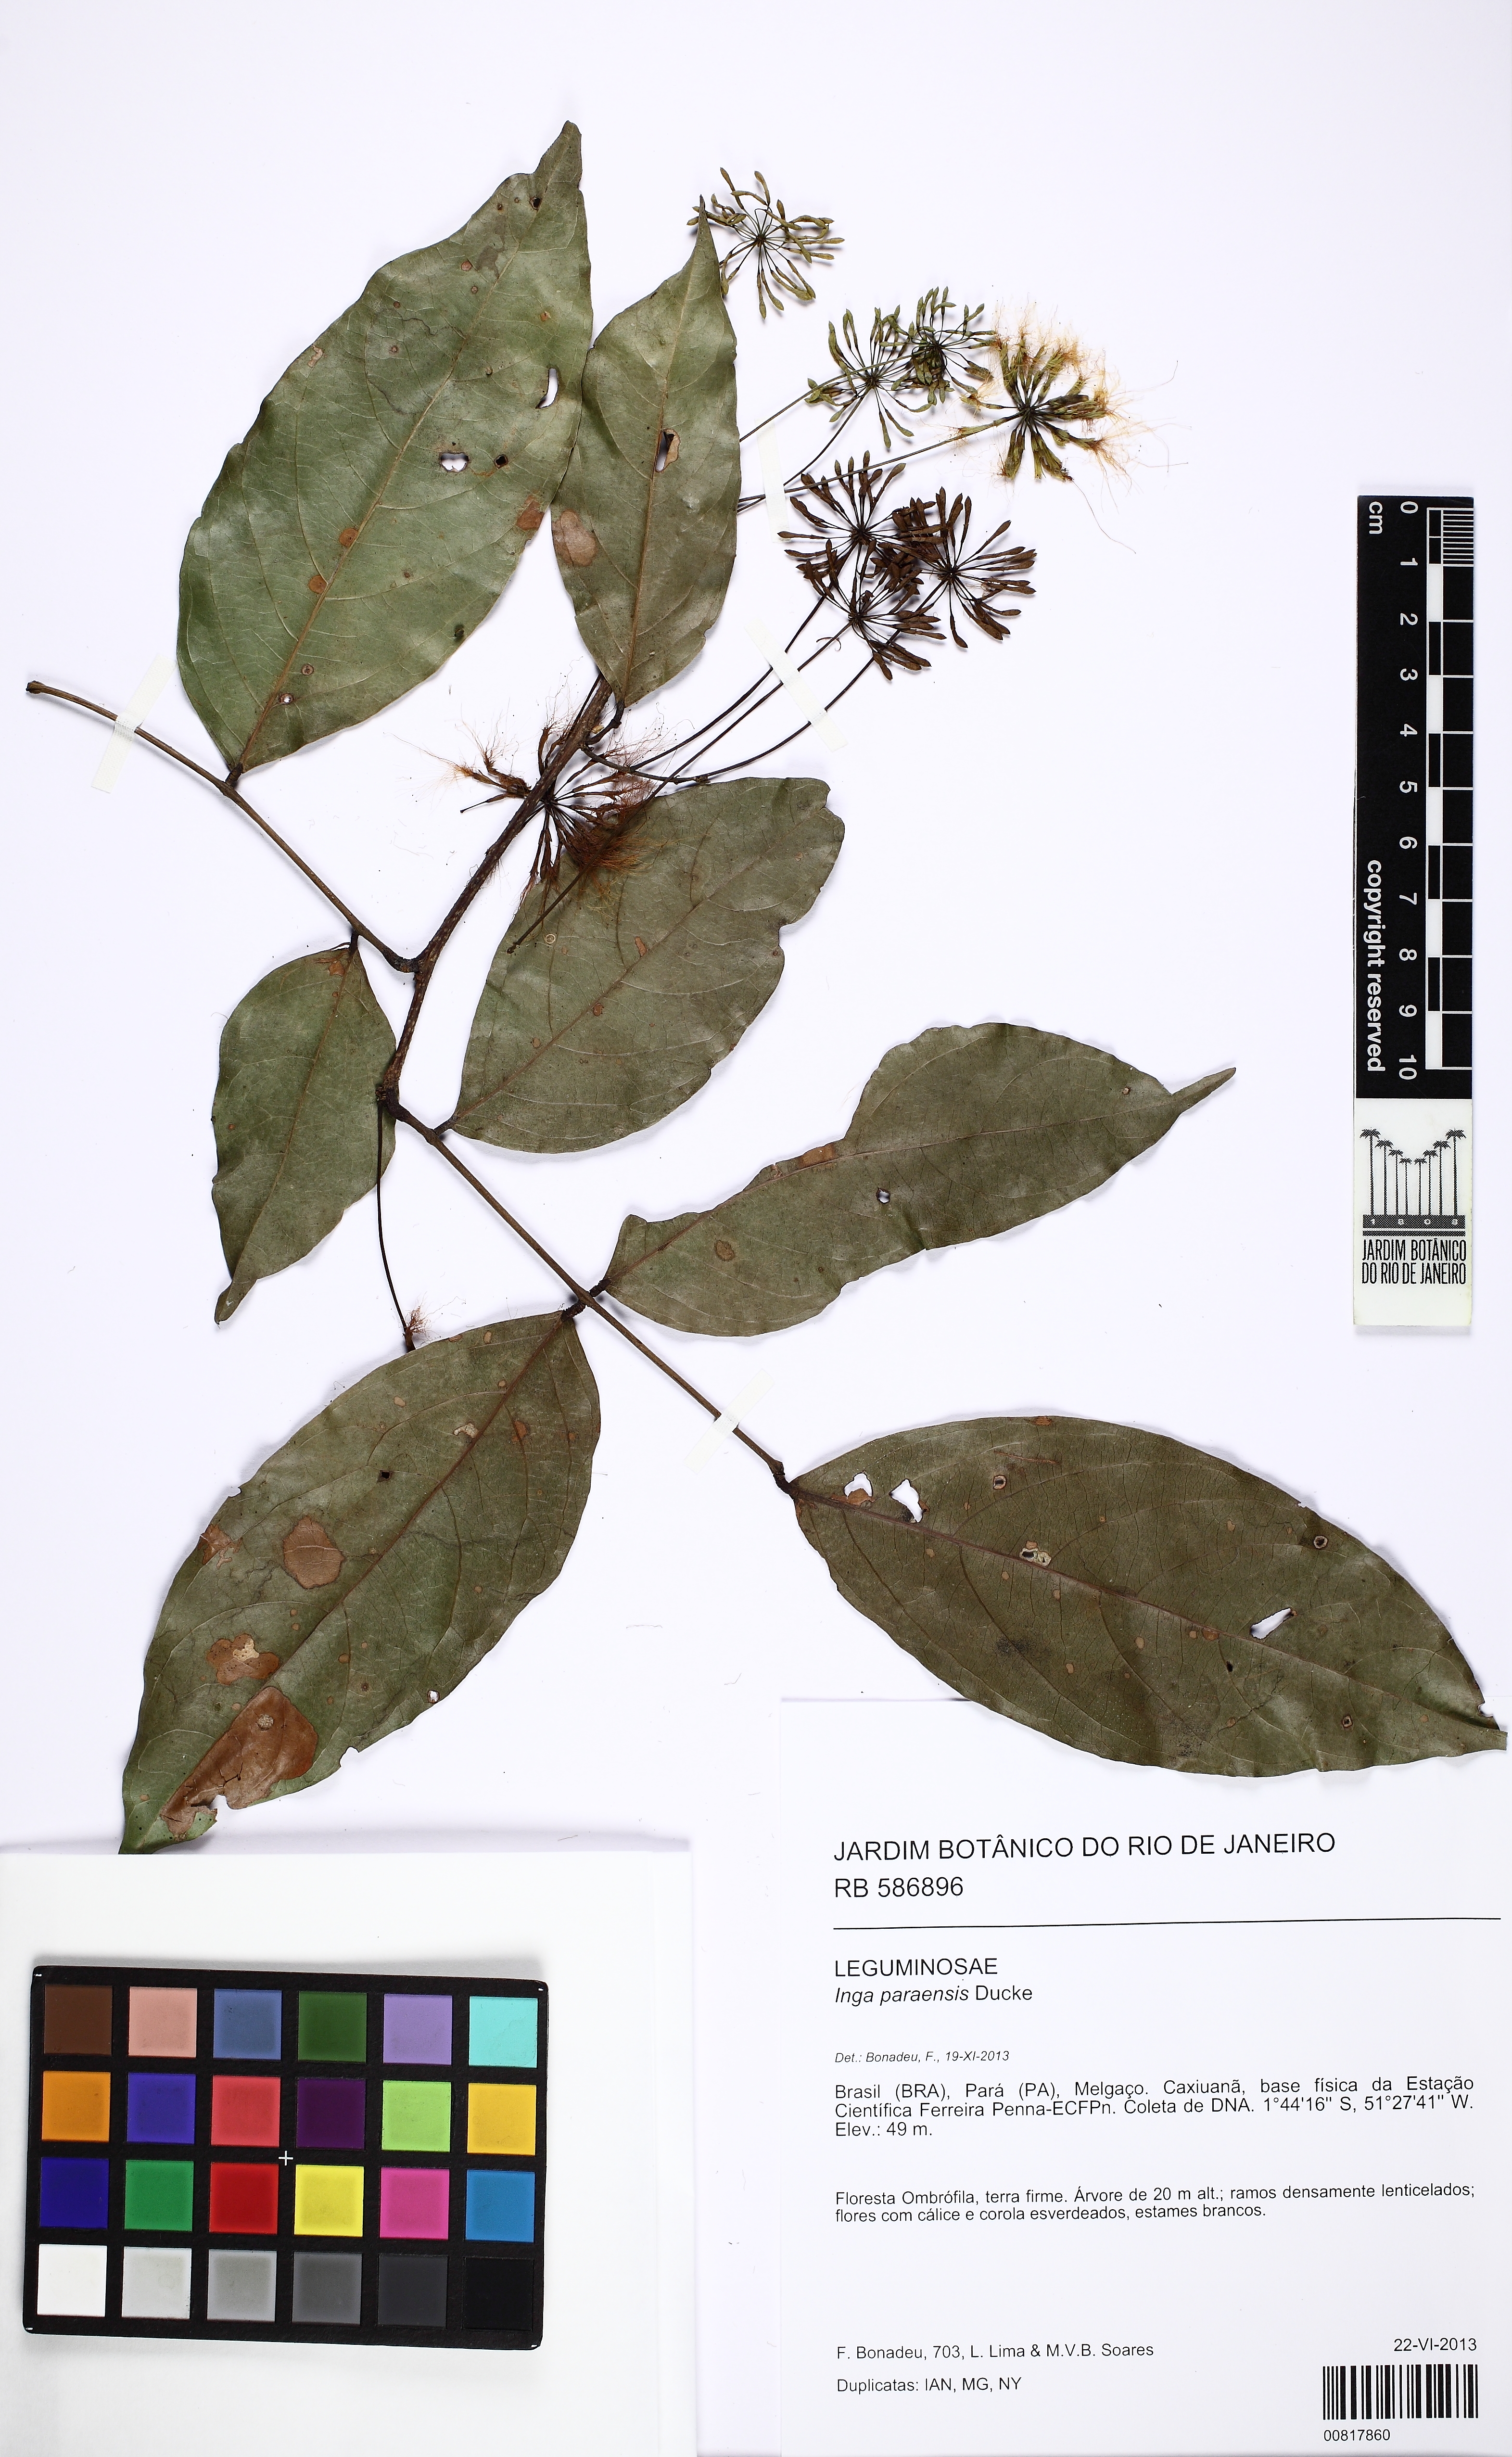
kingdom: Plantae
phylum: Tracheophyta
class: Magnoliopsida
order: Fabales
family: Fabaceae
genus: Inga
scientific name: Inga paraensis
